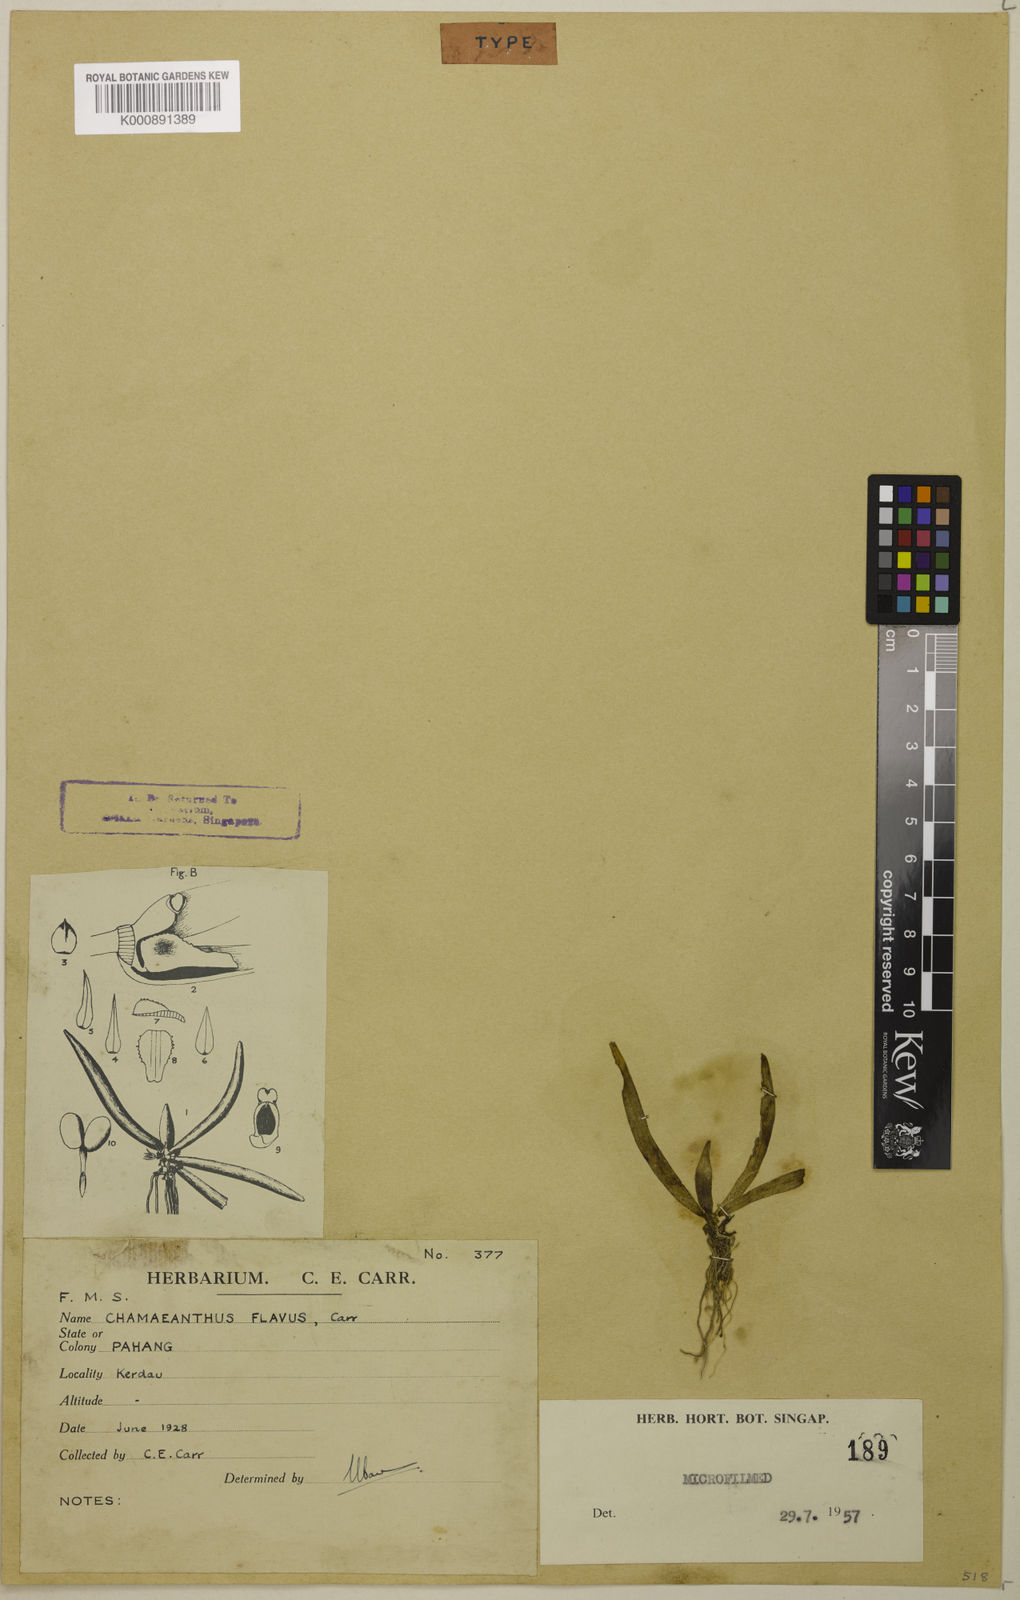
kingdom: Plantae
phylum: Tracheophyta
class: Liliopsida
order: Asparagales
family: Orchidaceae
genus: Biermannia
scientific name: Biermannia flava
